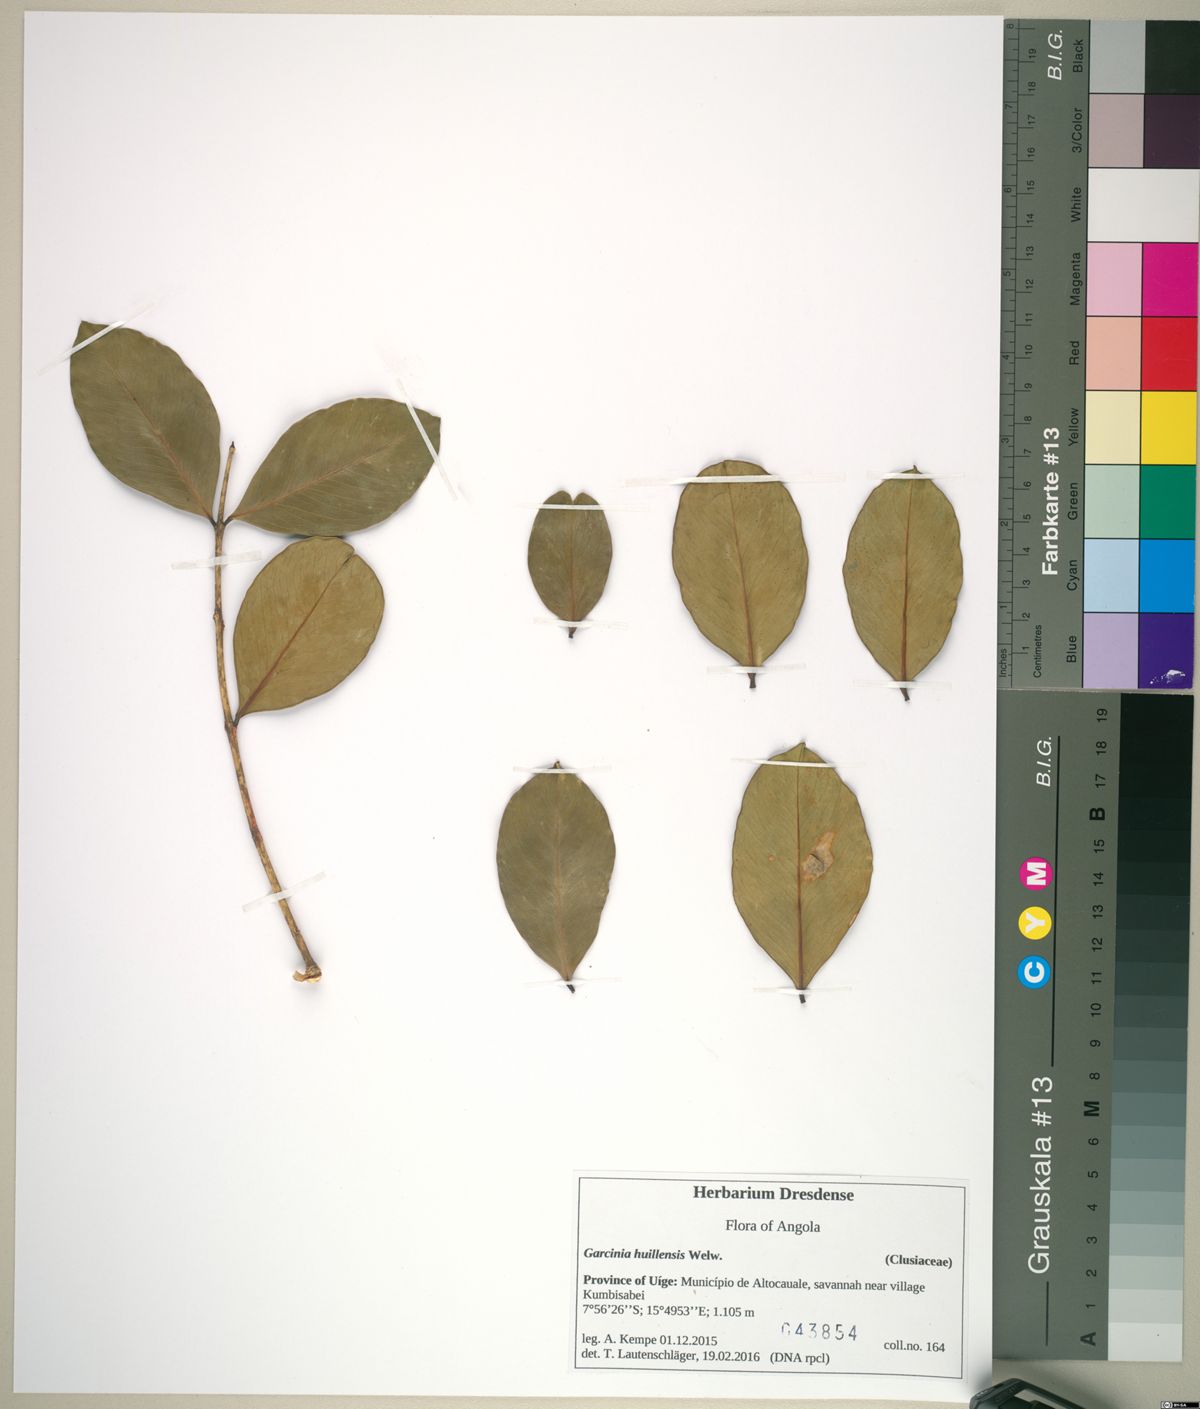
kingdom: Plantae
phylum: Tracheophyta
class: Magnoliopsida
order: Malpighiales
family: Clusiaceae
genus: Garcinia
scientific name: Garcinia huillensis
